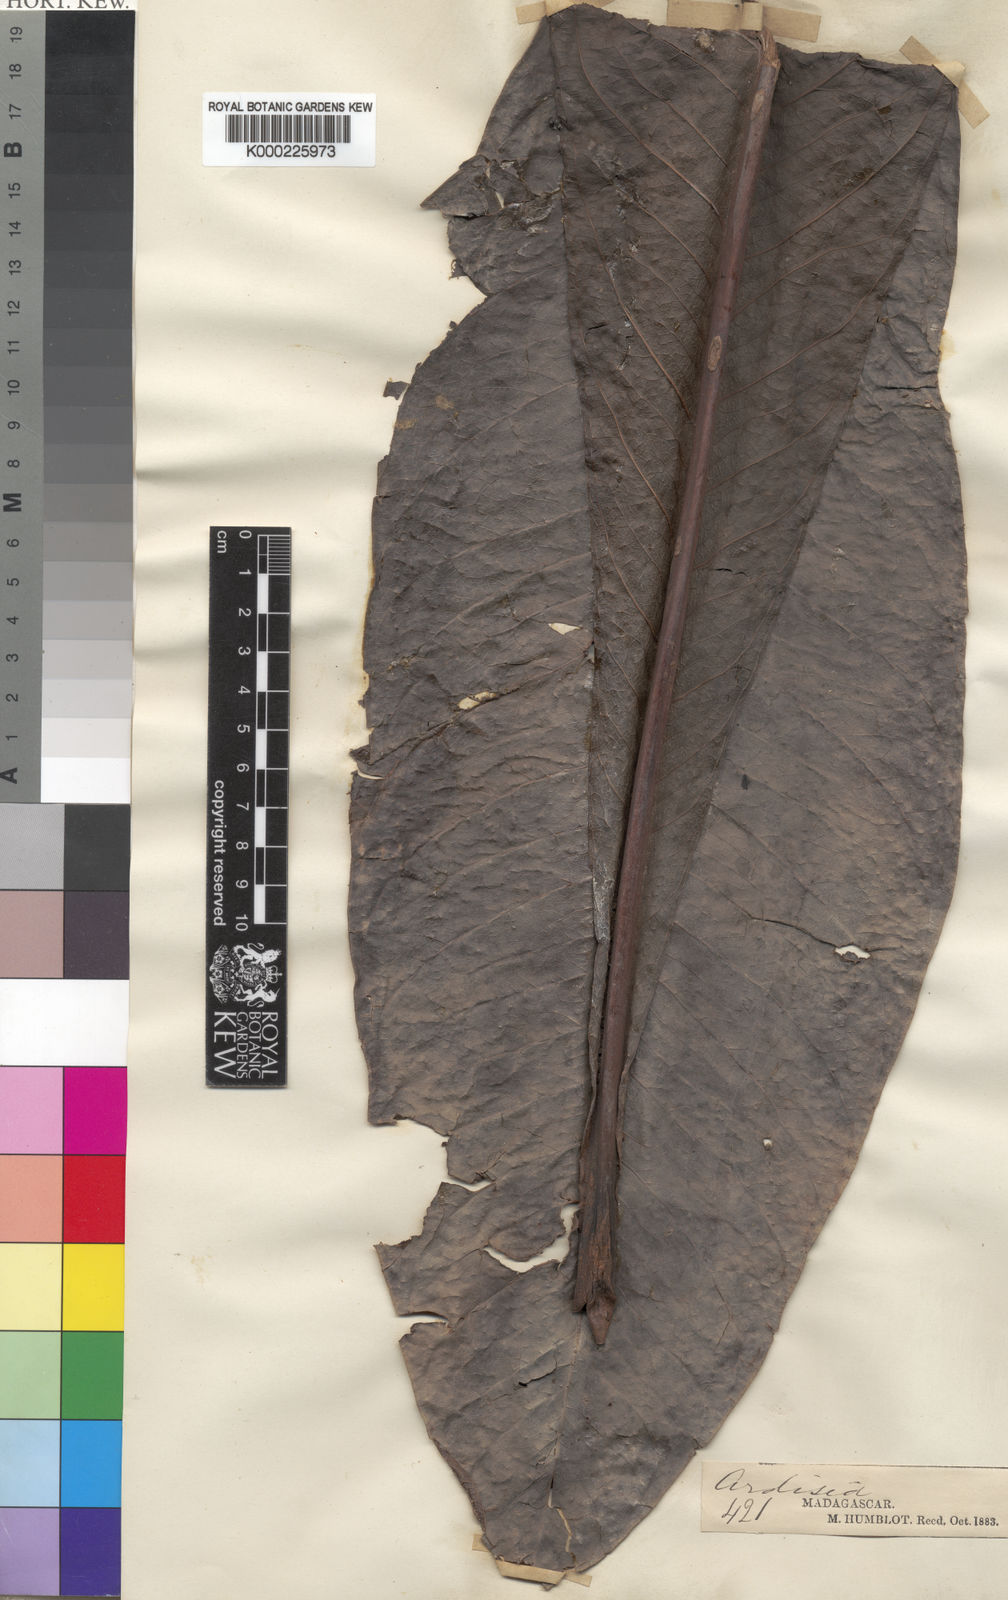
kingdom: Plantae
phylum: Tracheophyta
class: Magnoliopsida
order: Ericales
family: Primulaceae
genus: Oncostemum
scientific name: Oncostemum macrophyllum
